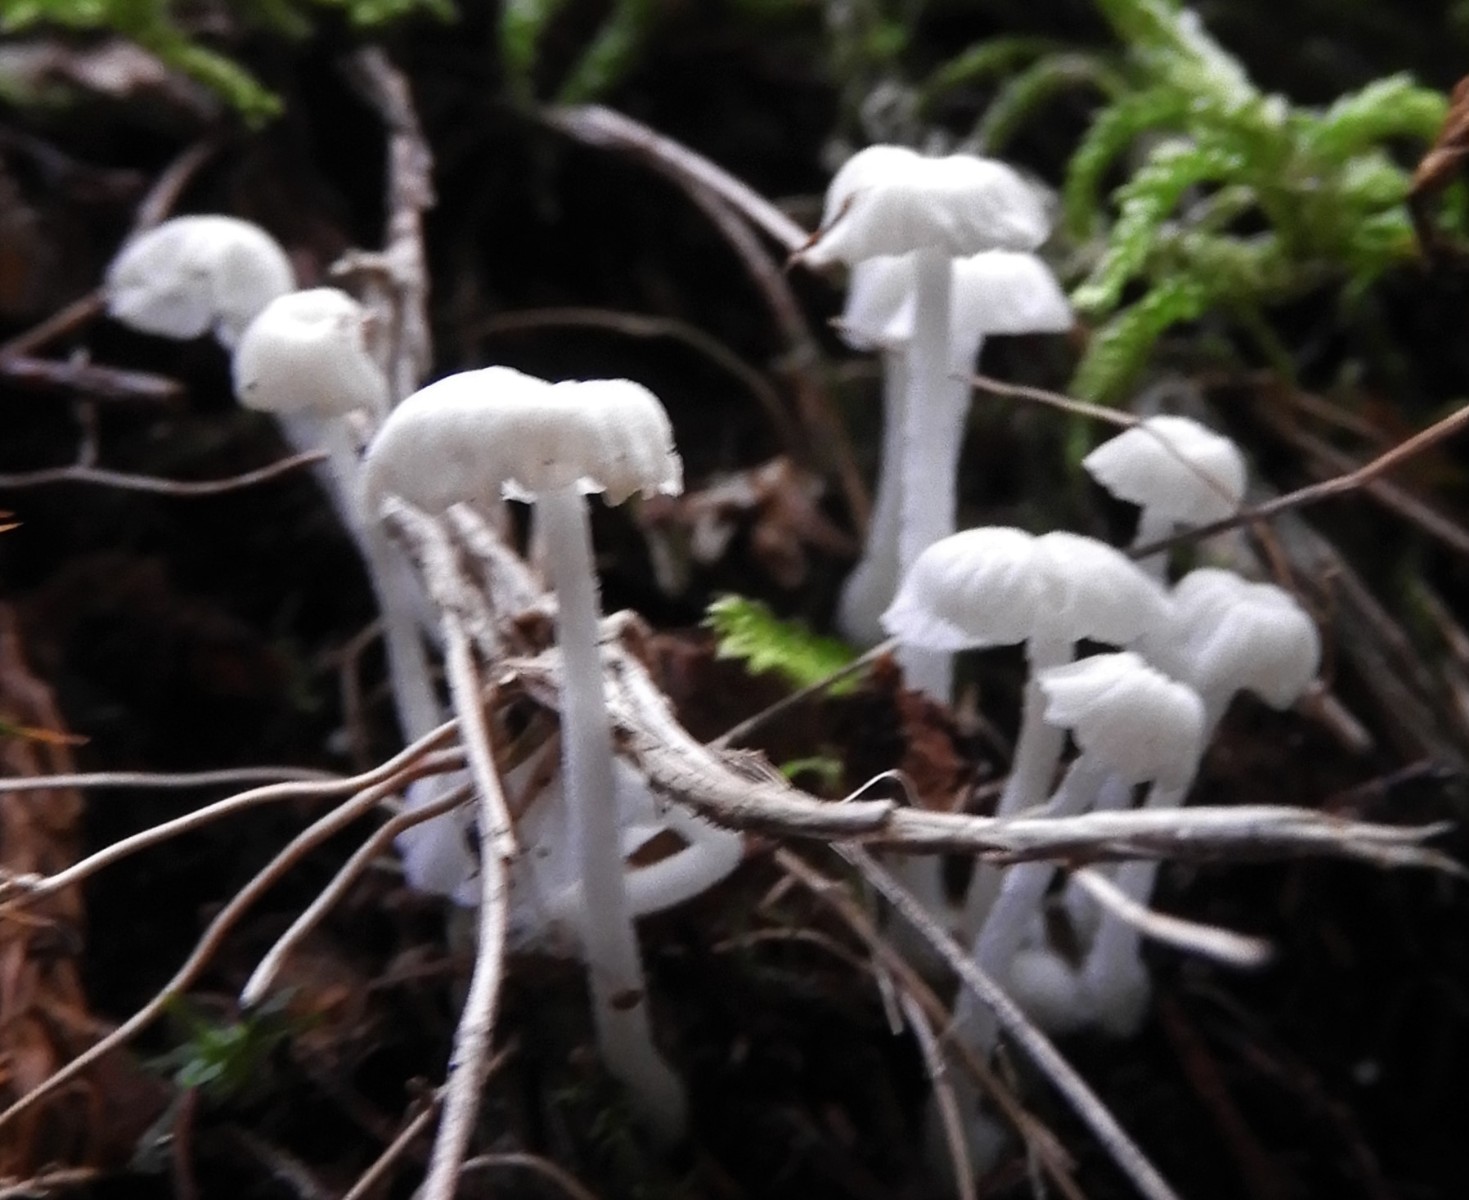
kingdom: Fungi
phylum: Basidiomycota
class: Agaricomycetes
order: Agaricales
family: Tricholomataceae
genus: Delicatula
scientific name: Delicatula integrella
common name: slørhuesvamp
